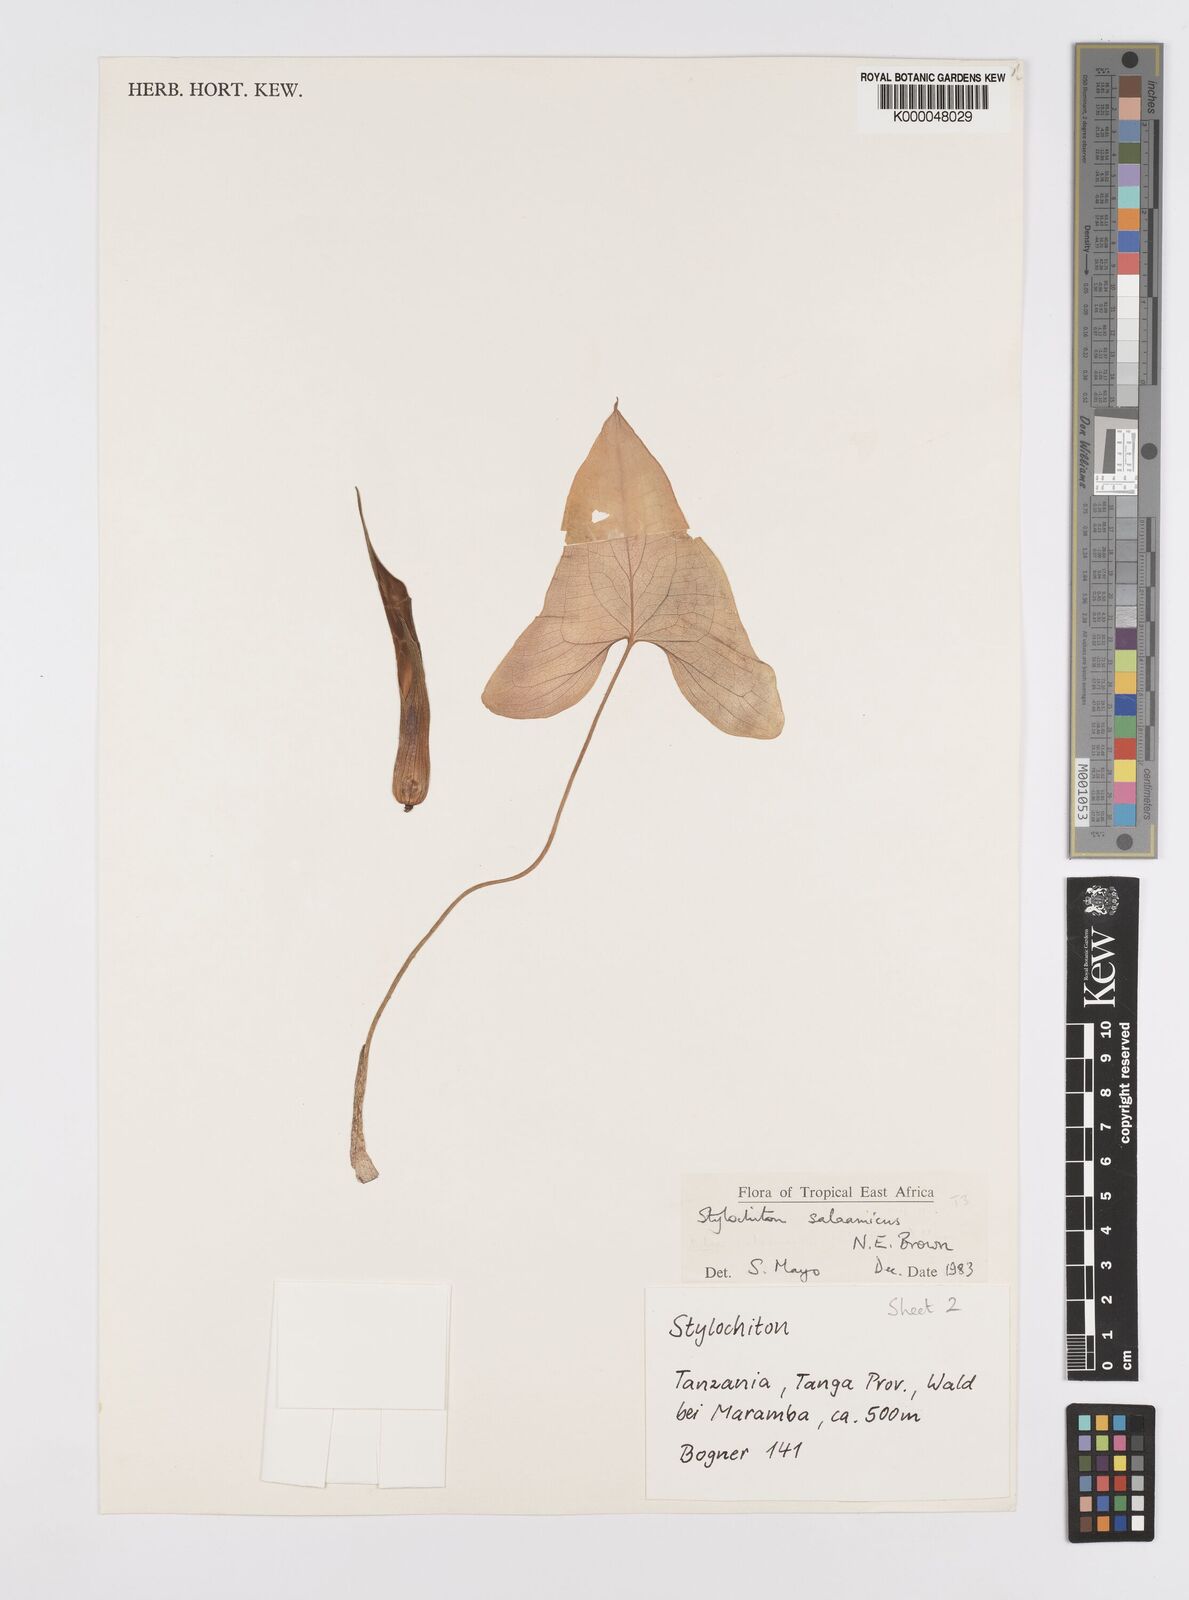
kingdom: Plantae
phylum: Tracheophyta
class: Liliopsida
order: Alismatales
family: Araceae
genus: Stylochaeton
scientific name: Stylochaeton salaamicum
